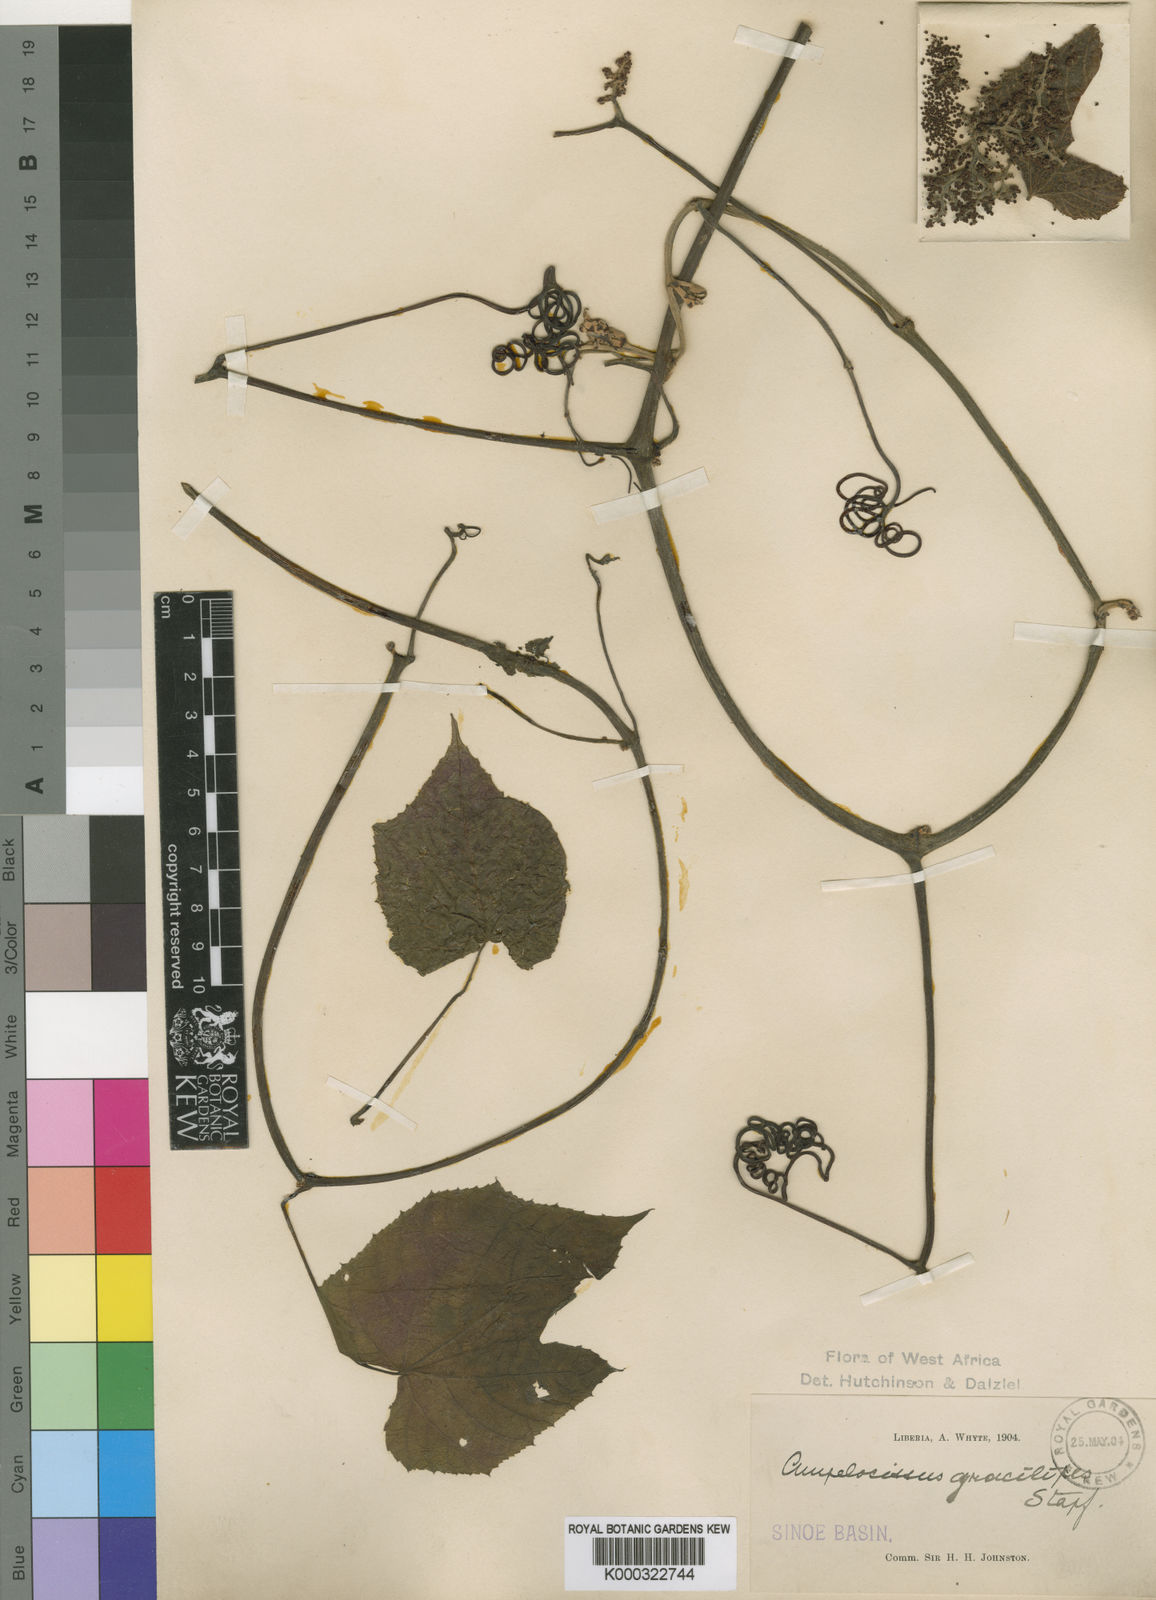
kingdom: Plantae
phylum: Tracheophyta
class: Magnoliopsida
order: Vitales
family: Vitaceae
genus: Ampelocissus
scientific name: Ampelocissus gracilipes
